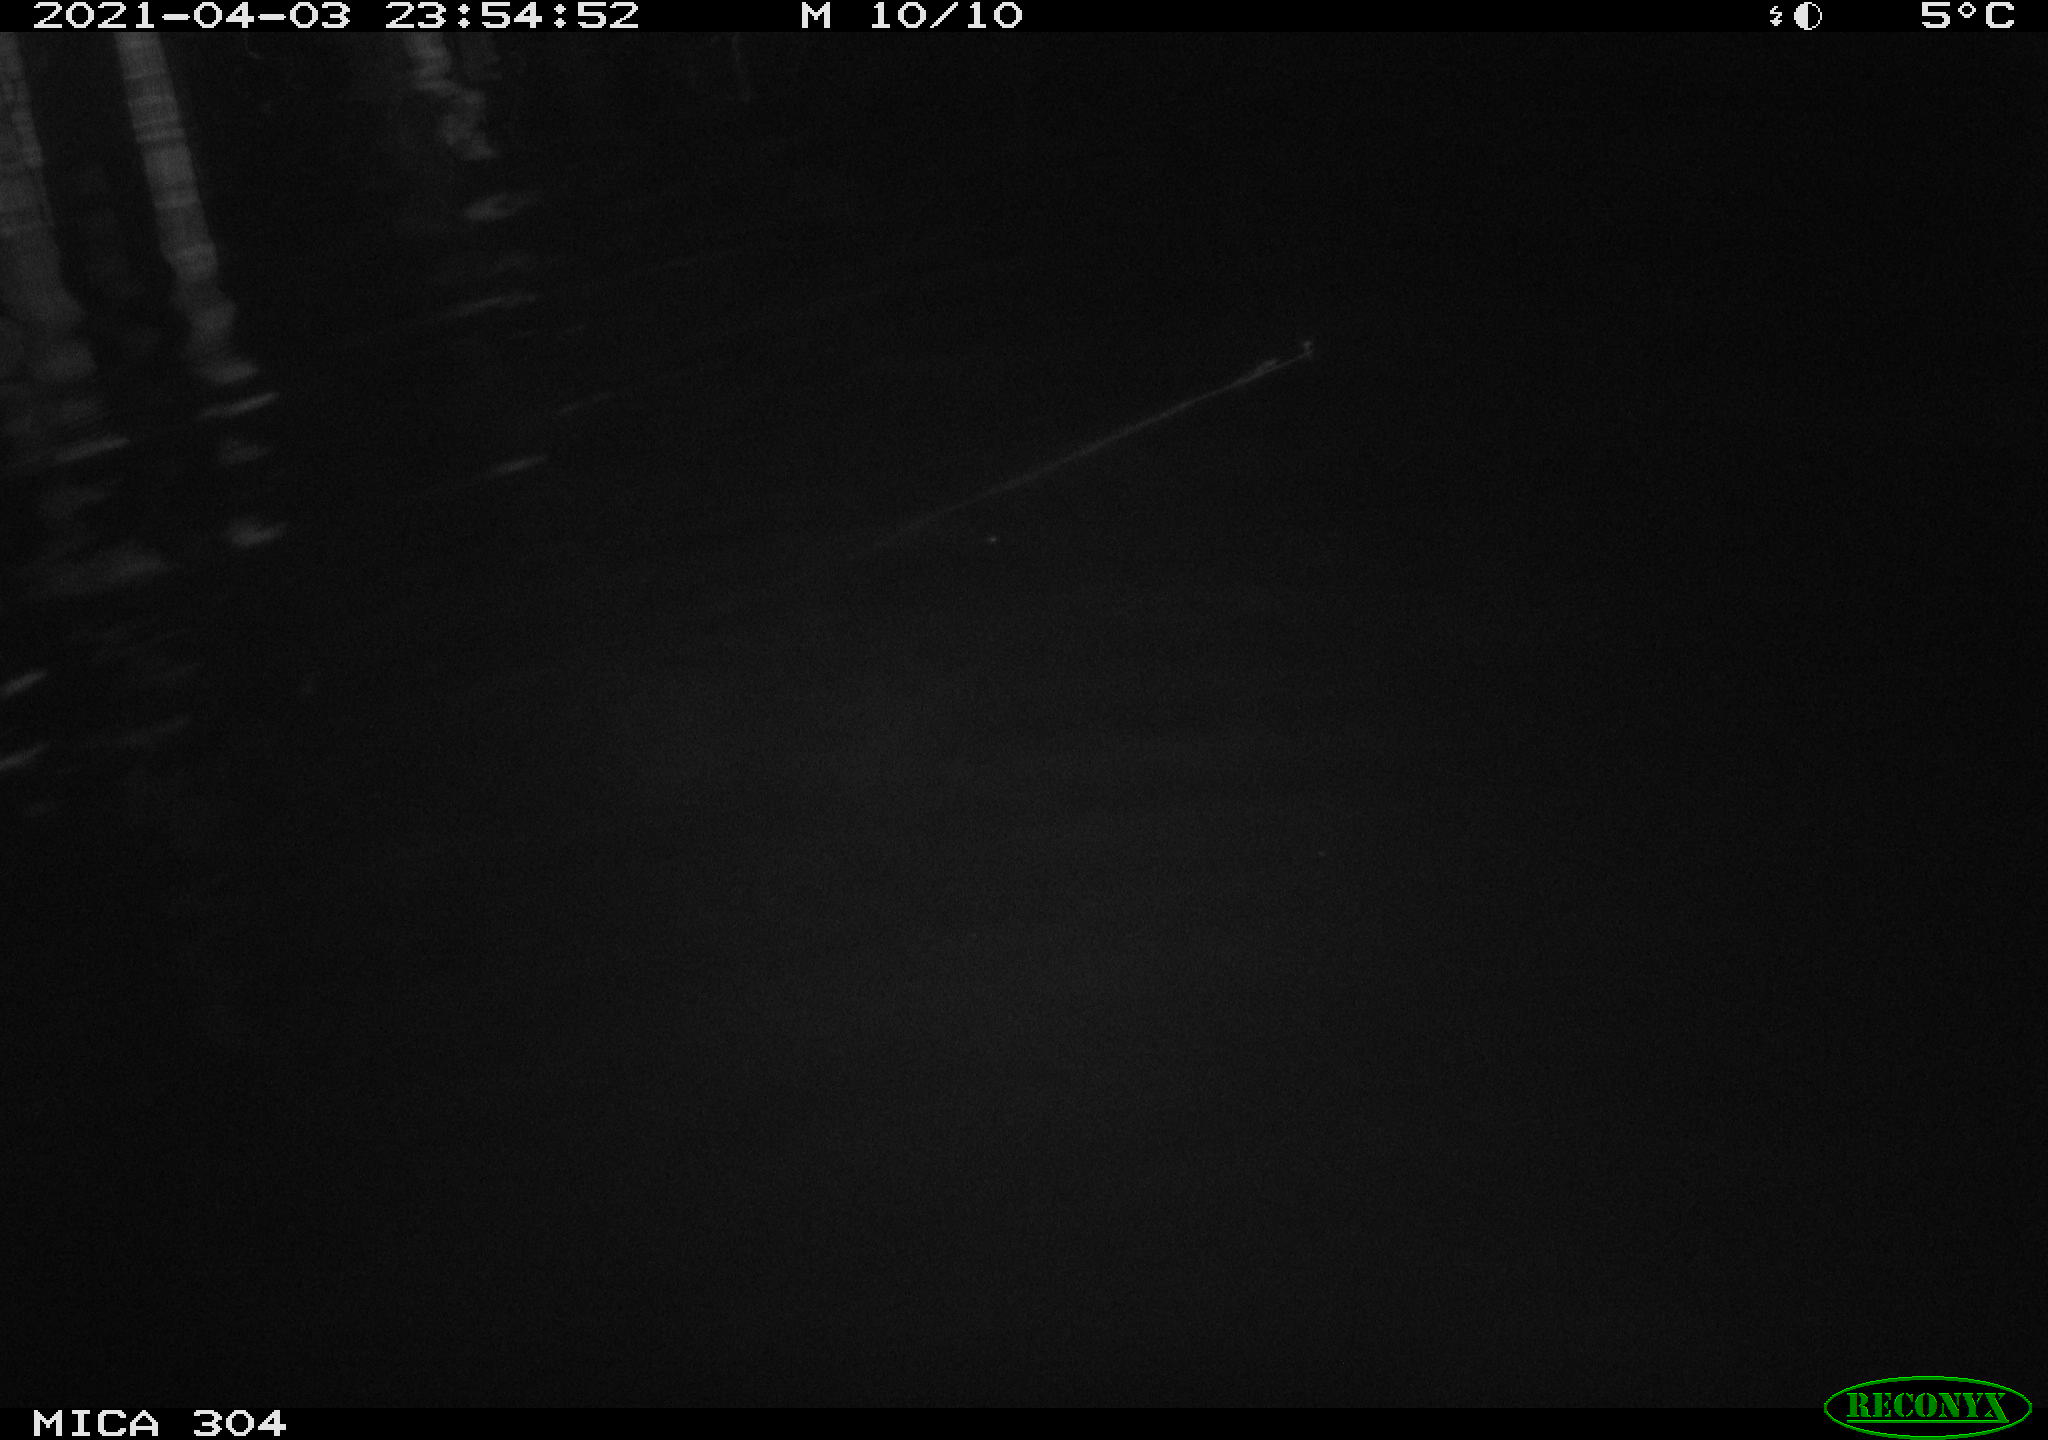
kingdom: Animalia
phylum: Chordata
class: Aves
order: Anseriformes
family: Anatidae
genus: Anas
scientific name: Anas
